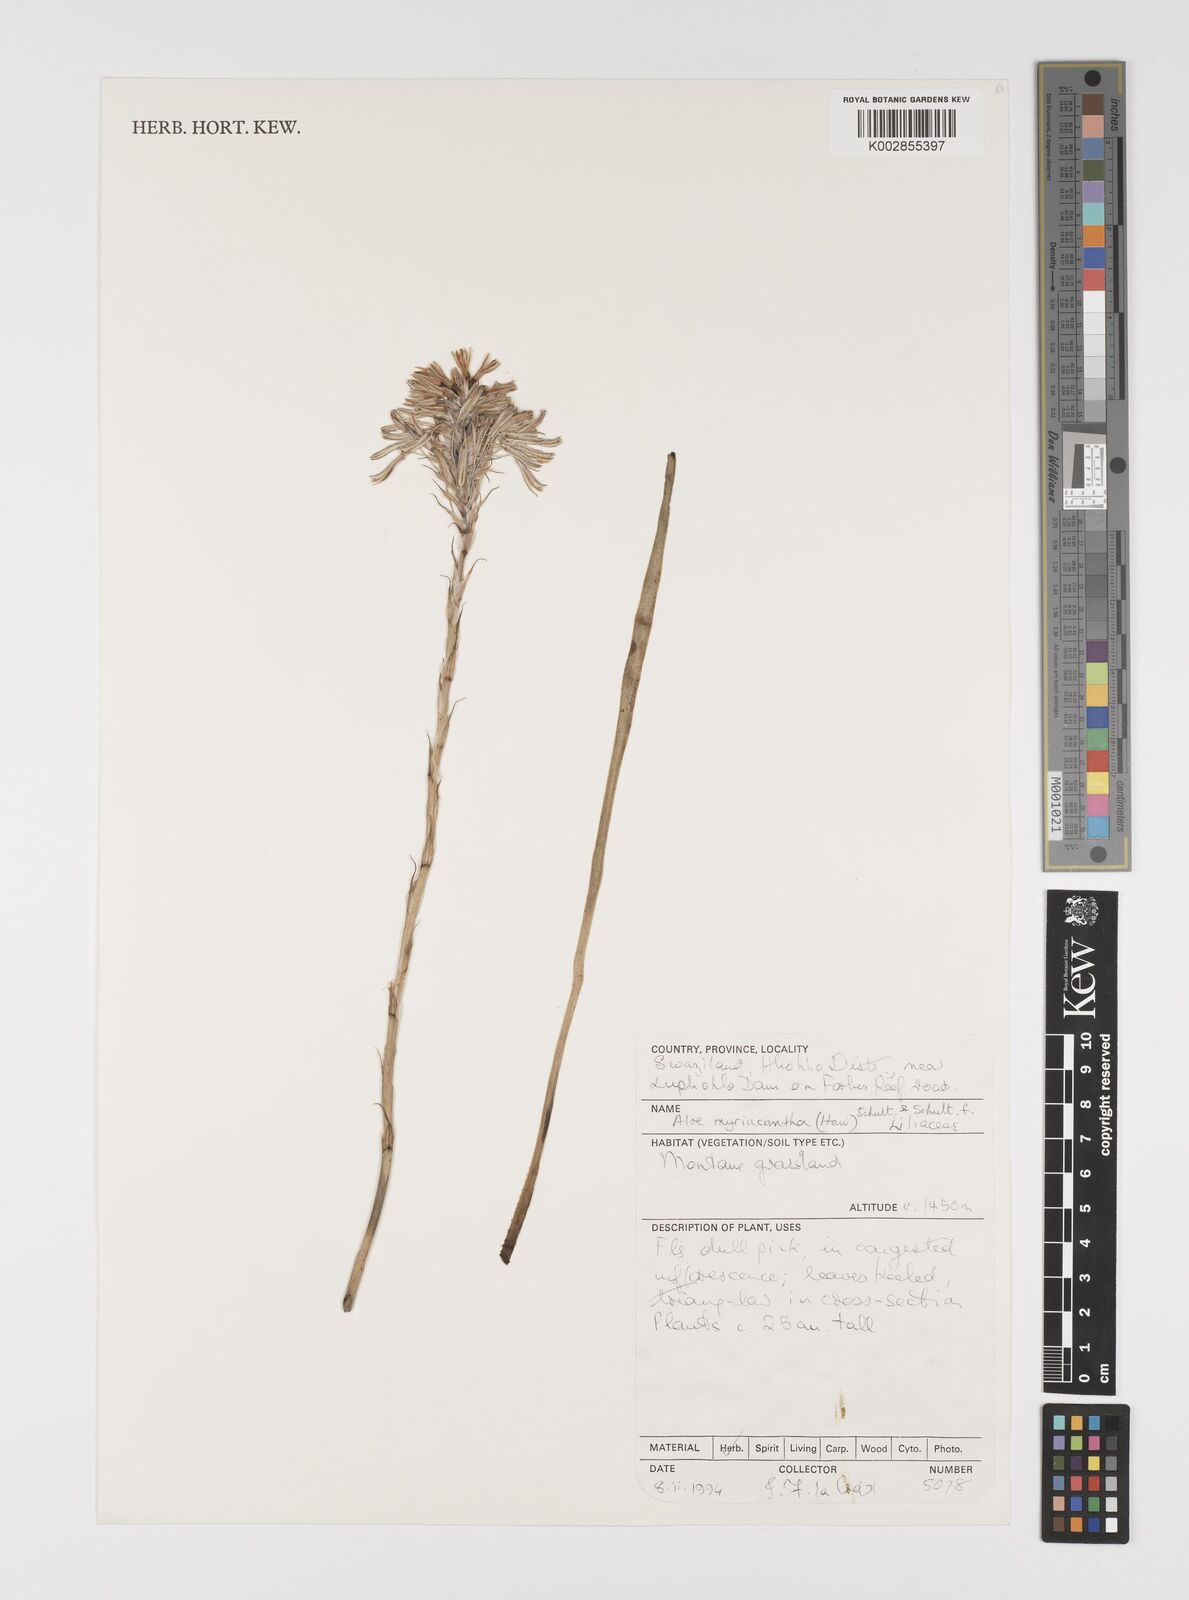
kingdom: Plantae
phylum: Tracheophyta
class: Liliopsida
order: Asparagales
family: Asphodelaceae
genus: Aloe
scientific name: Aloe myriacantha
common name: Grass aloe
